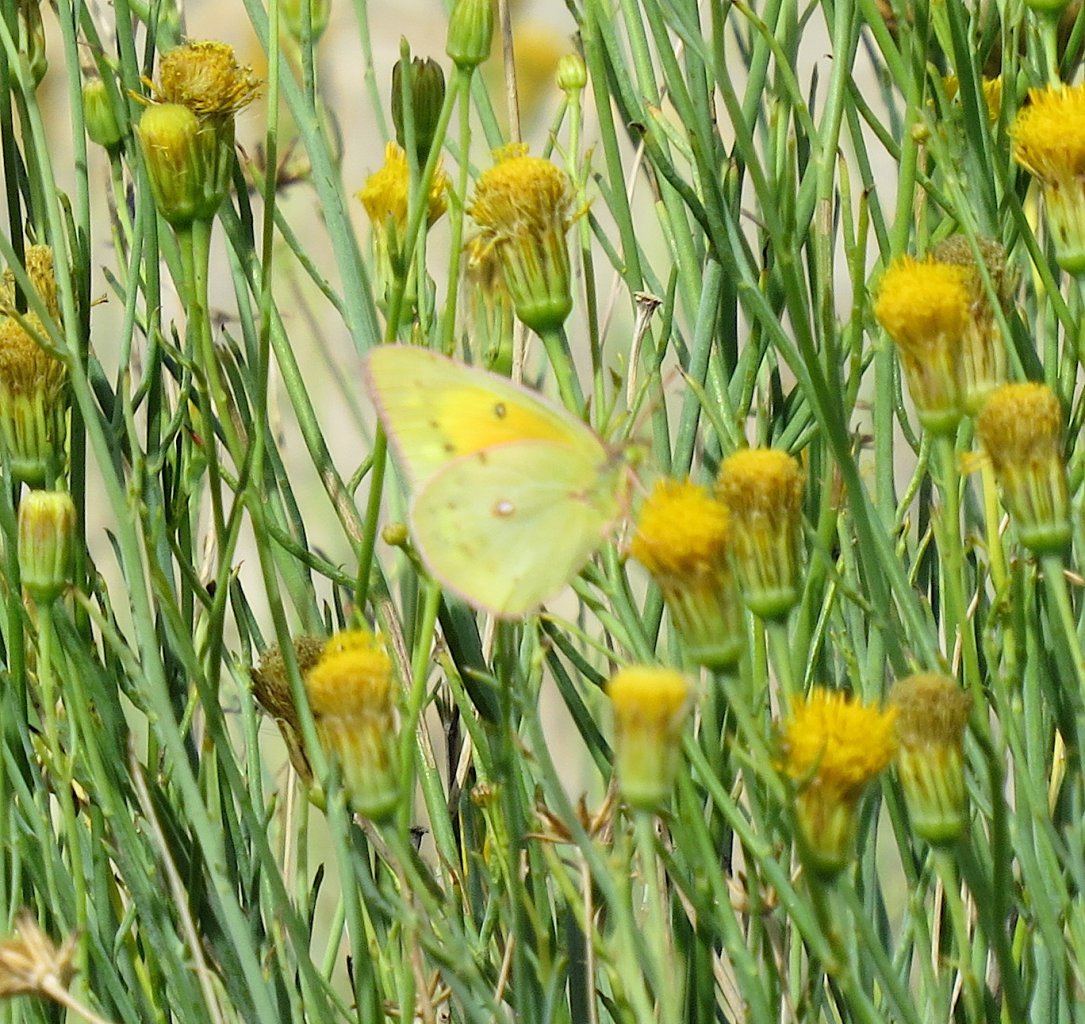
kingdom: Animalia
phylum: Arthropoda
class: Insecta
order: Lepidoptera
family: Pieridae
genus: Colias
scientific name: Colias eurytheme
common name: Orange Sulphur
